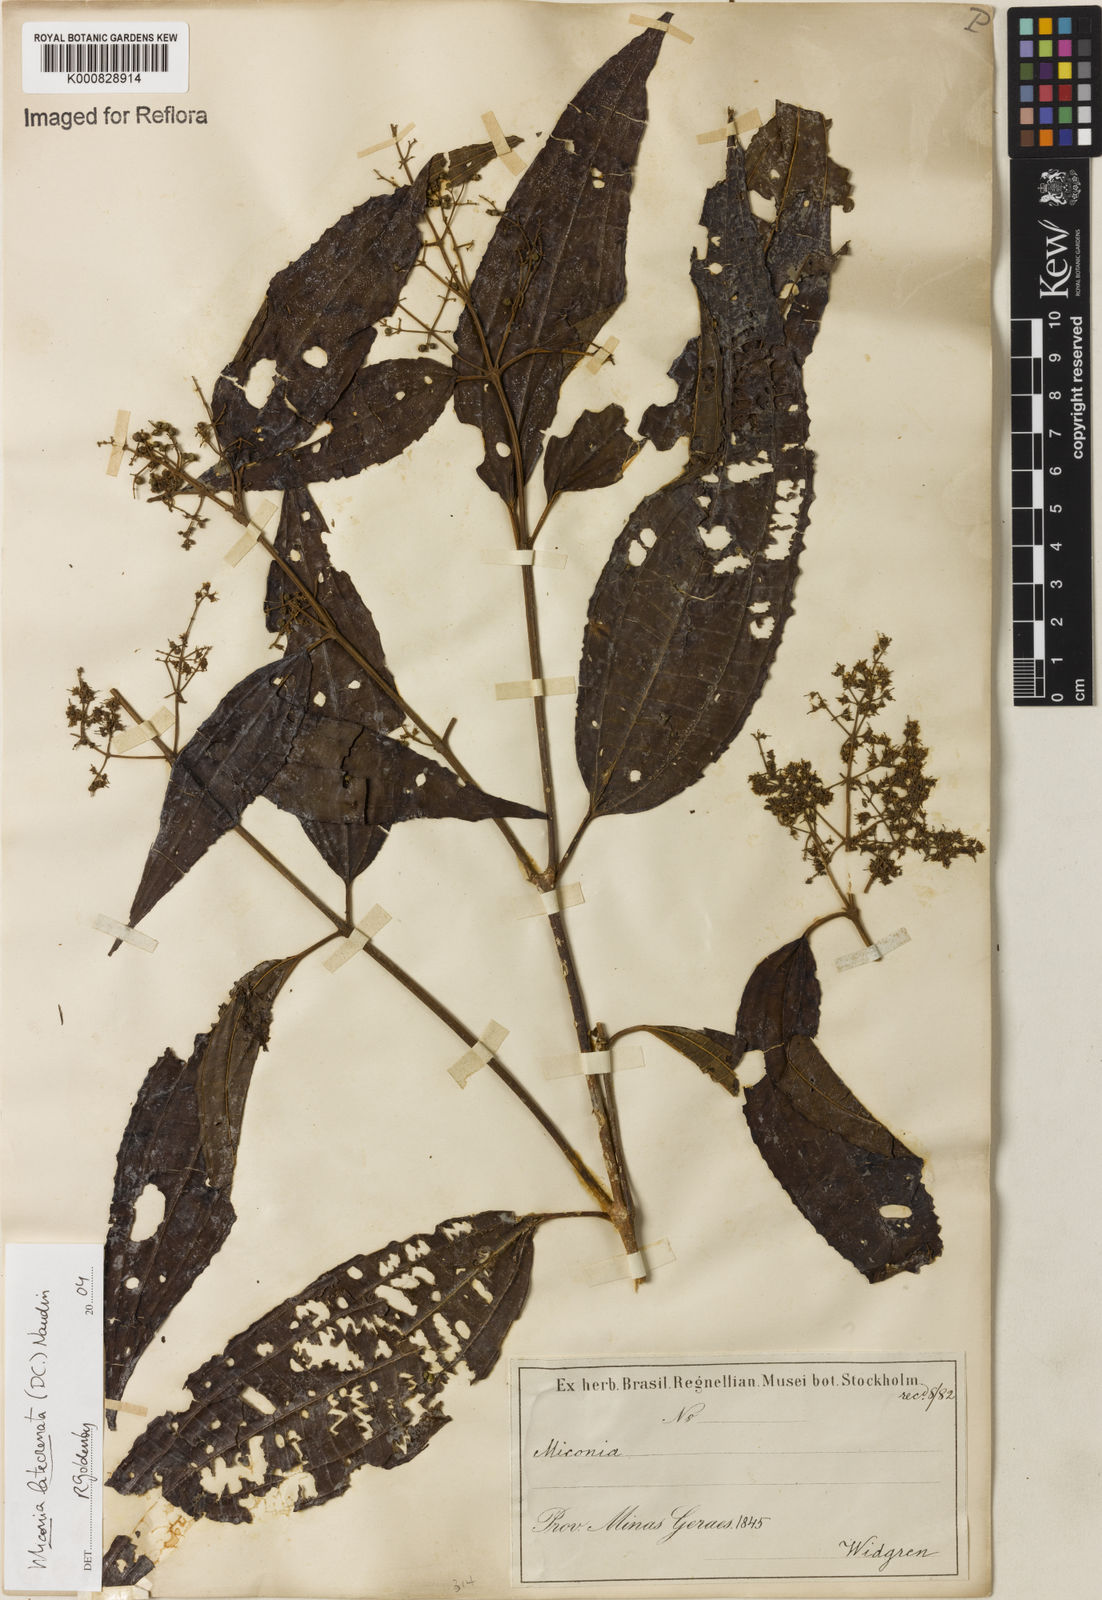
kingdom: Plantae
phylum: Tracheophyta
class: Magnoliopsida
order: Myrtales
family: Melastomataceae
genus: Miconia
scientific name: Miconia latecrenata
